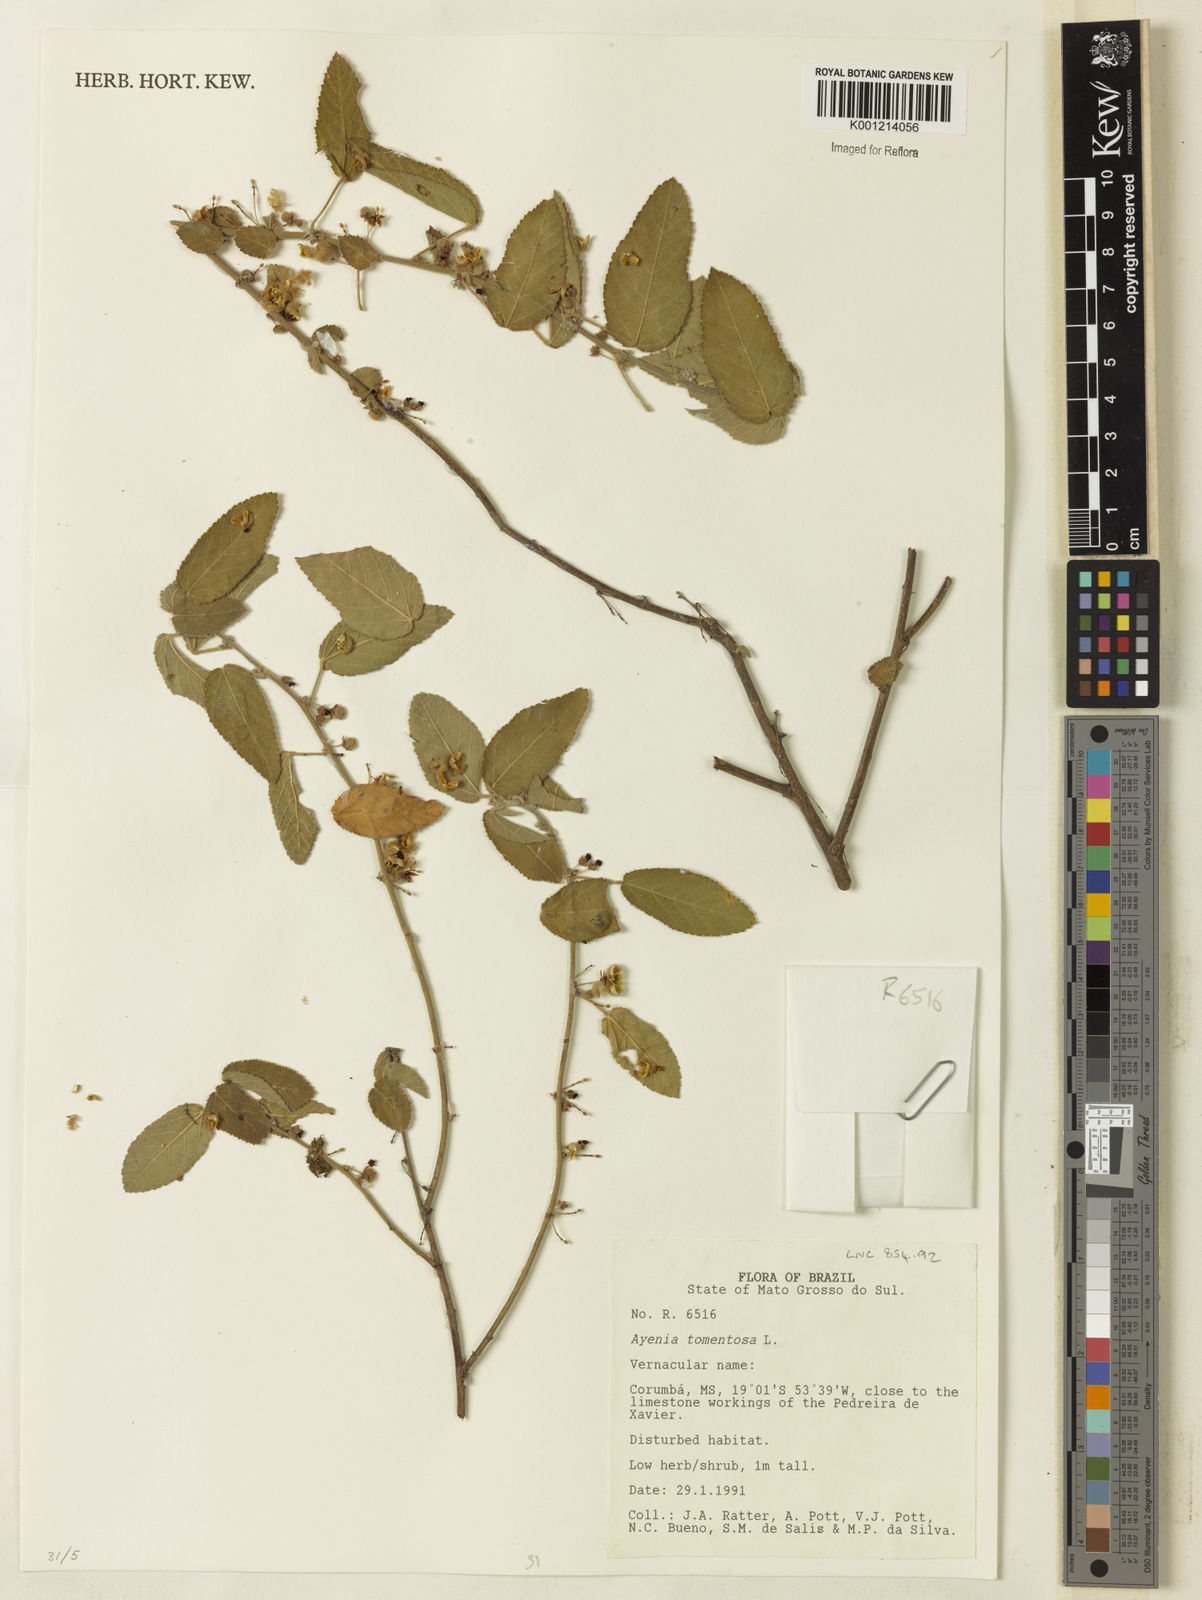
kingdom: Plantae
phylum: Tracheophyta
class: Magnoliopsida
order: Malvales
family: Malvaceae
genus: Ayenia
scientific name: Ayenia tomentosa
